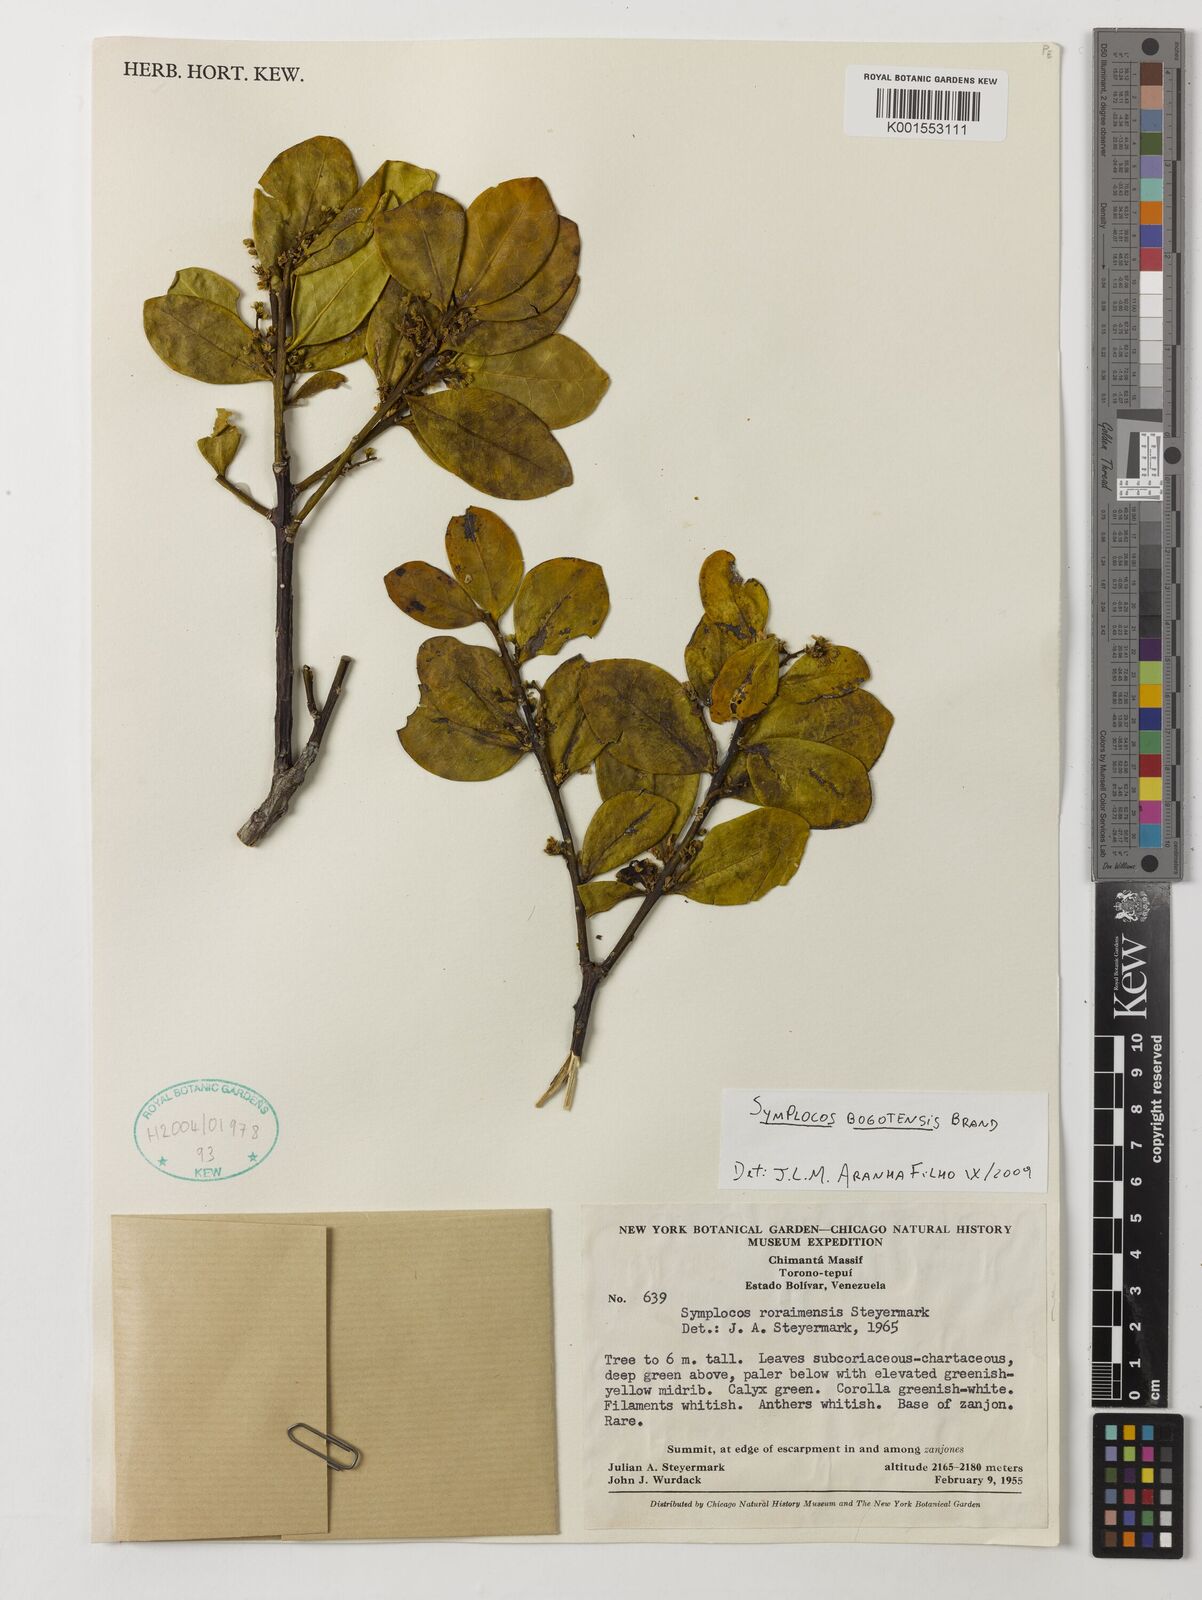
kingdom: Plantae
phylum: Tracheophyta
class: Magnoliopsida
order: Ericales
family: Symplocaceae
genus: Symplocos
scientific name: Symplocos bogotensis
